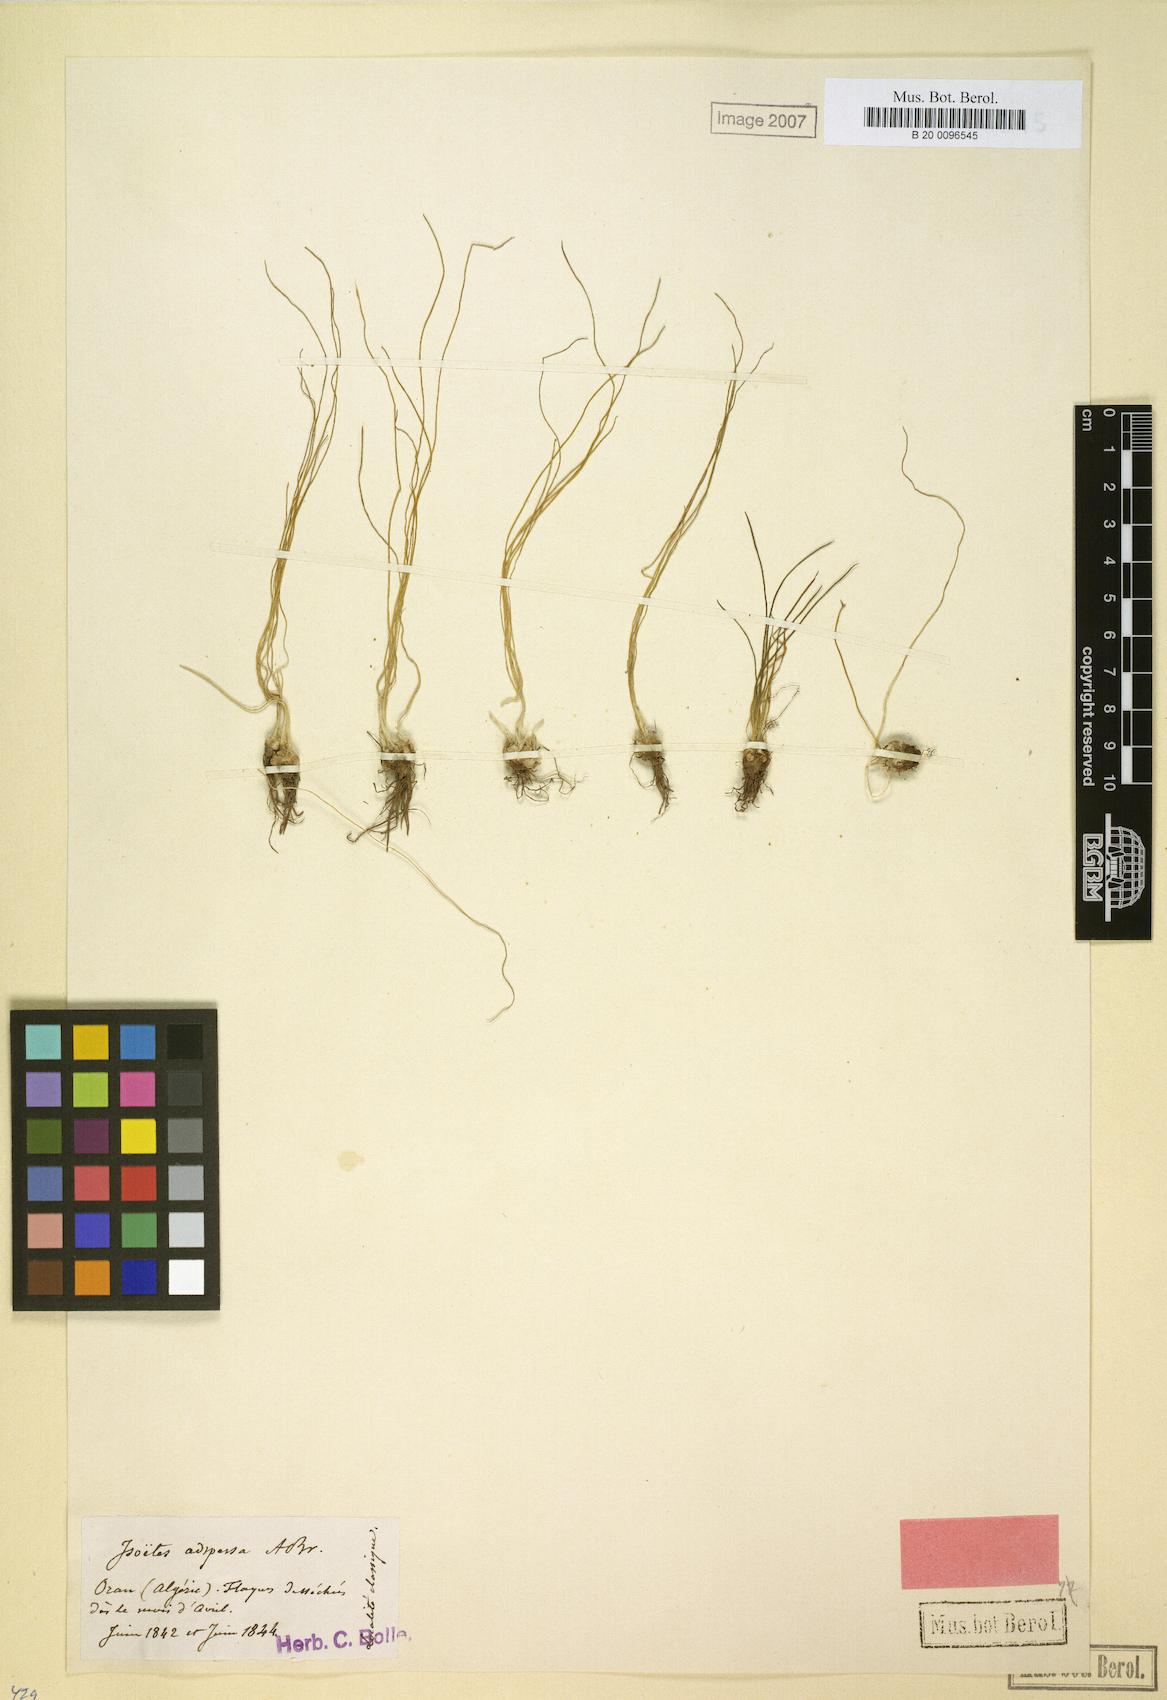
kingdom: Plantae
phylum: Tracheophyta
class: Lycopodiopsida
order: Isoetales
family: Isoetaceae
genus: Isoetes
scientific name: Isoetes longissima
